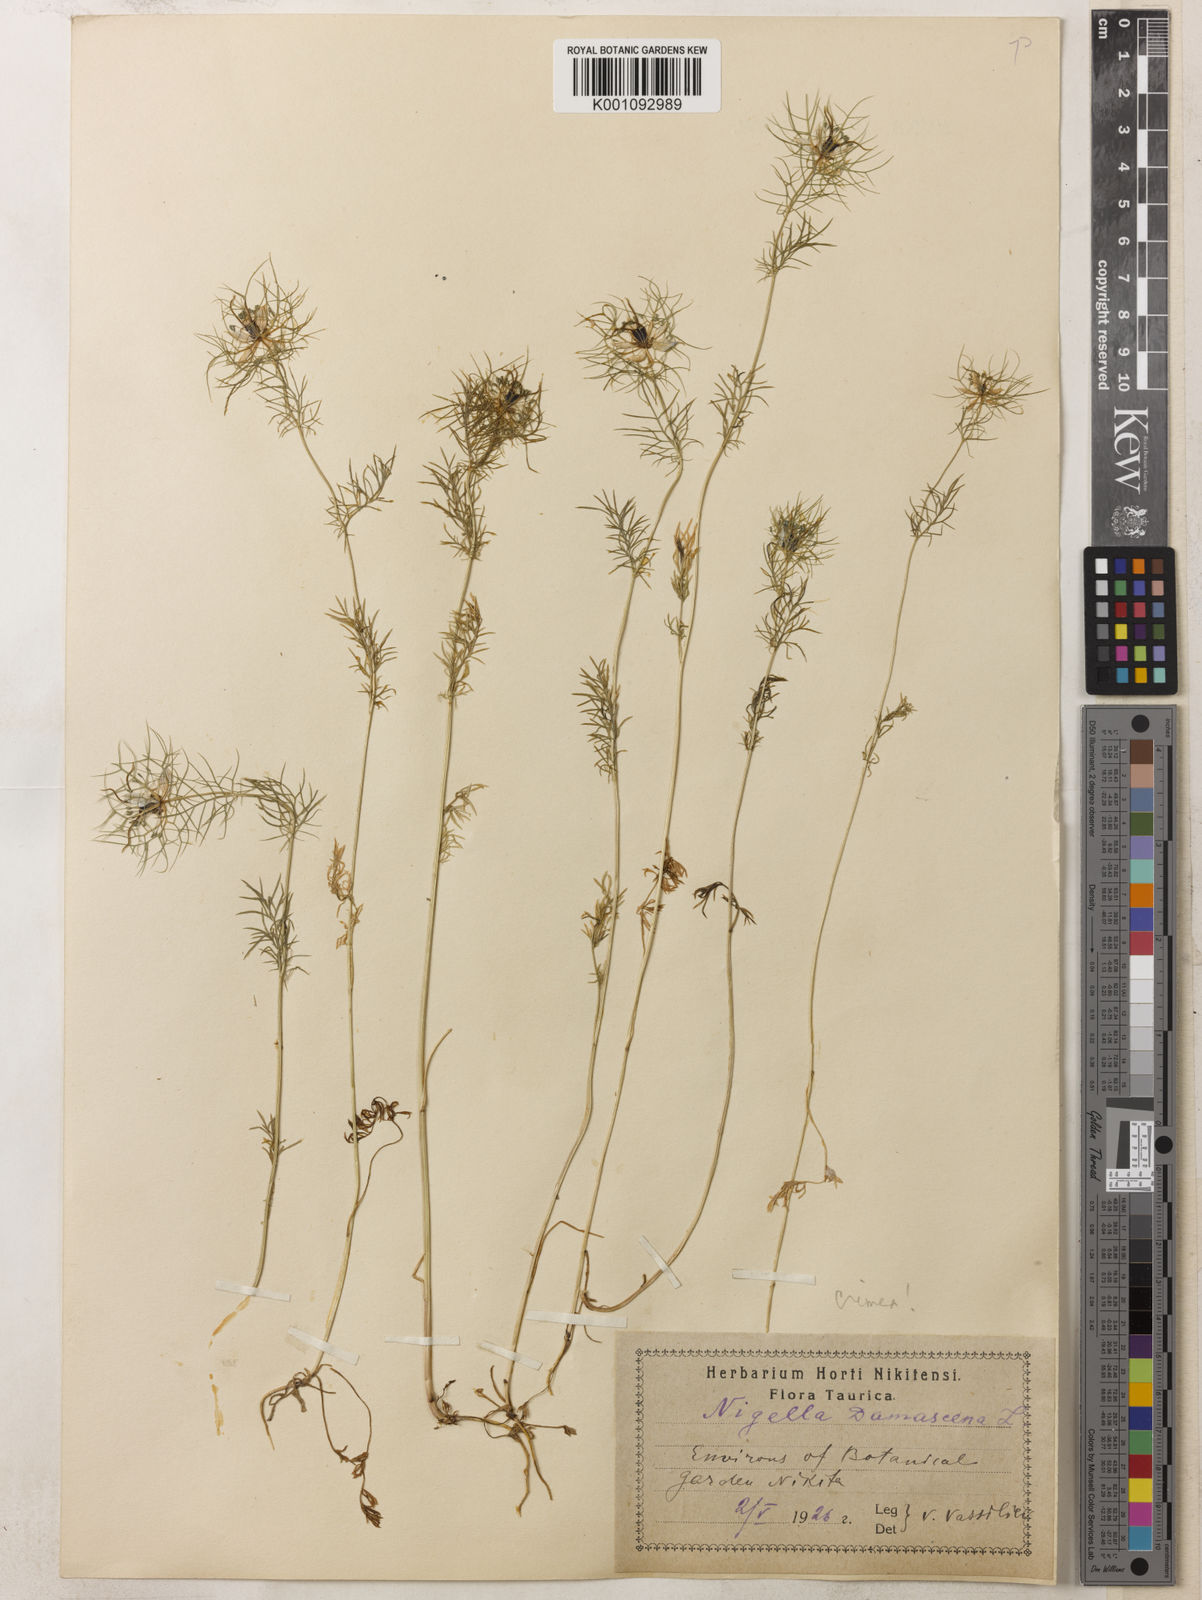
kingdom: Plantae
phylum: Tracheophyta
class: Magnoliopsida
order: Ranunculales
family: Ranunculaceae
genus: Nigella
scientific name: Nigella damascena
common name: Love-in-a-mist
